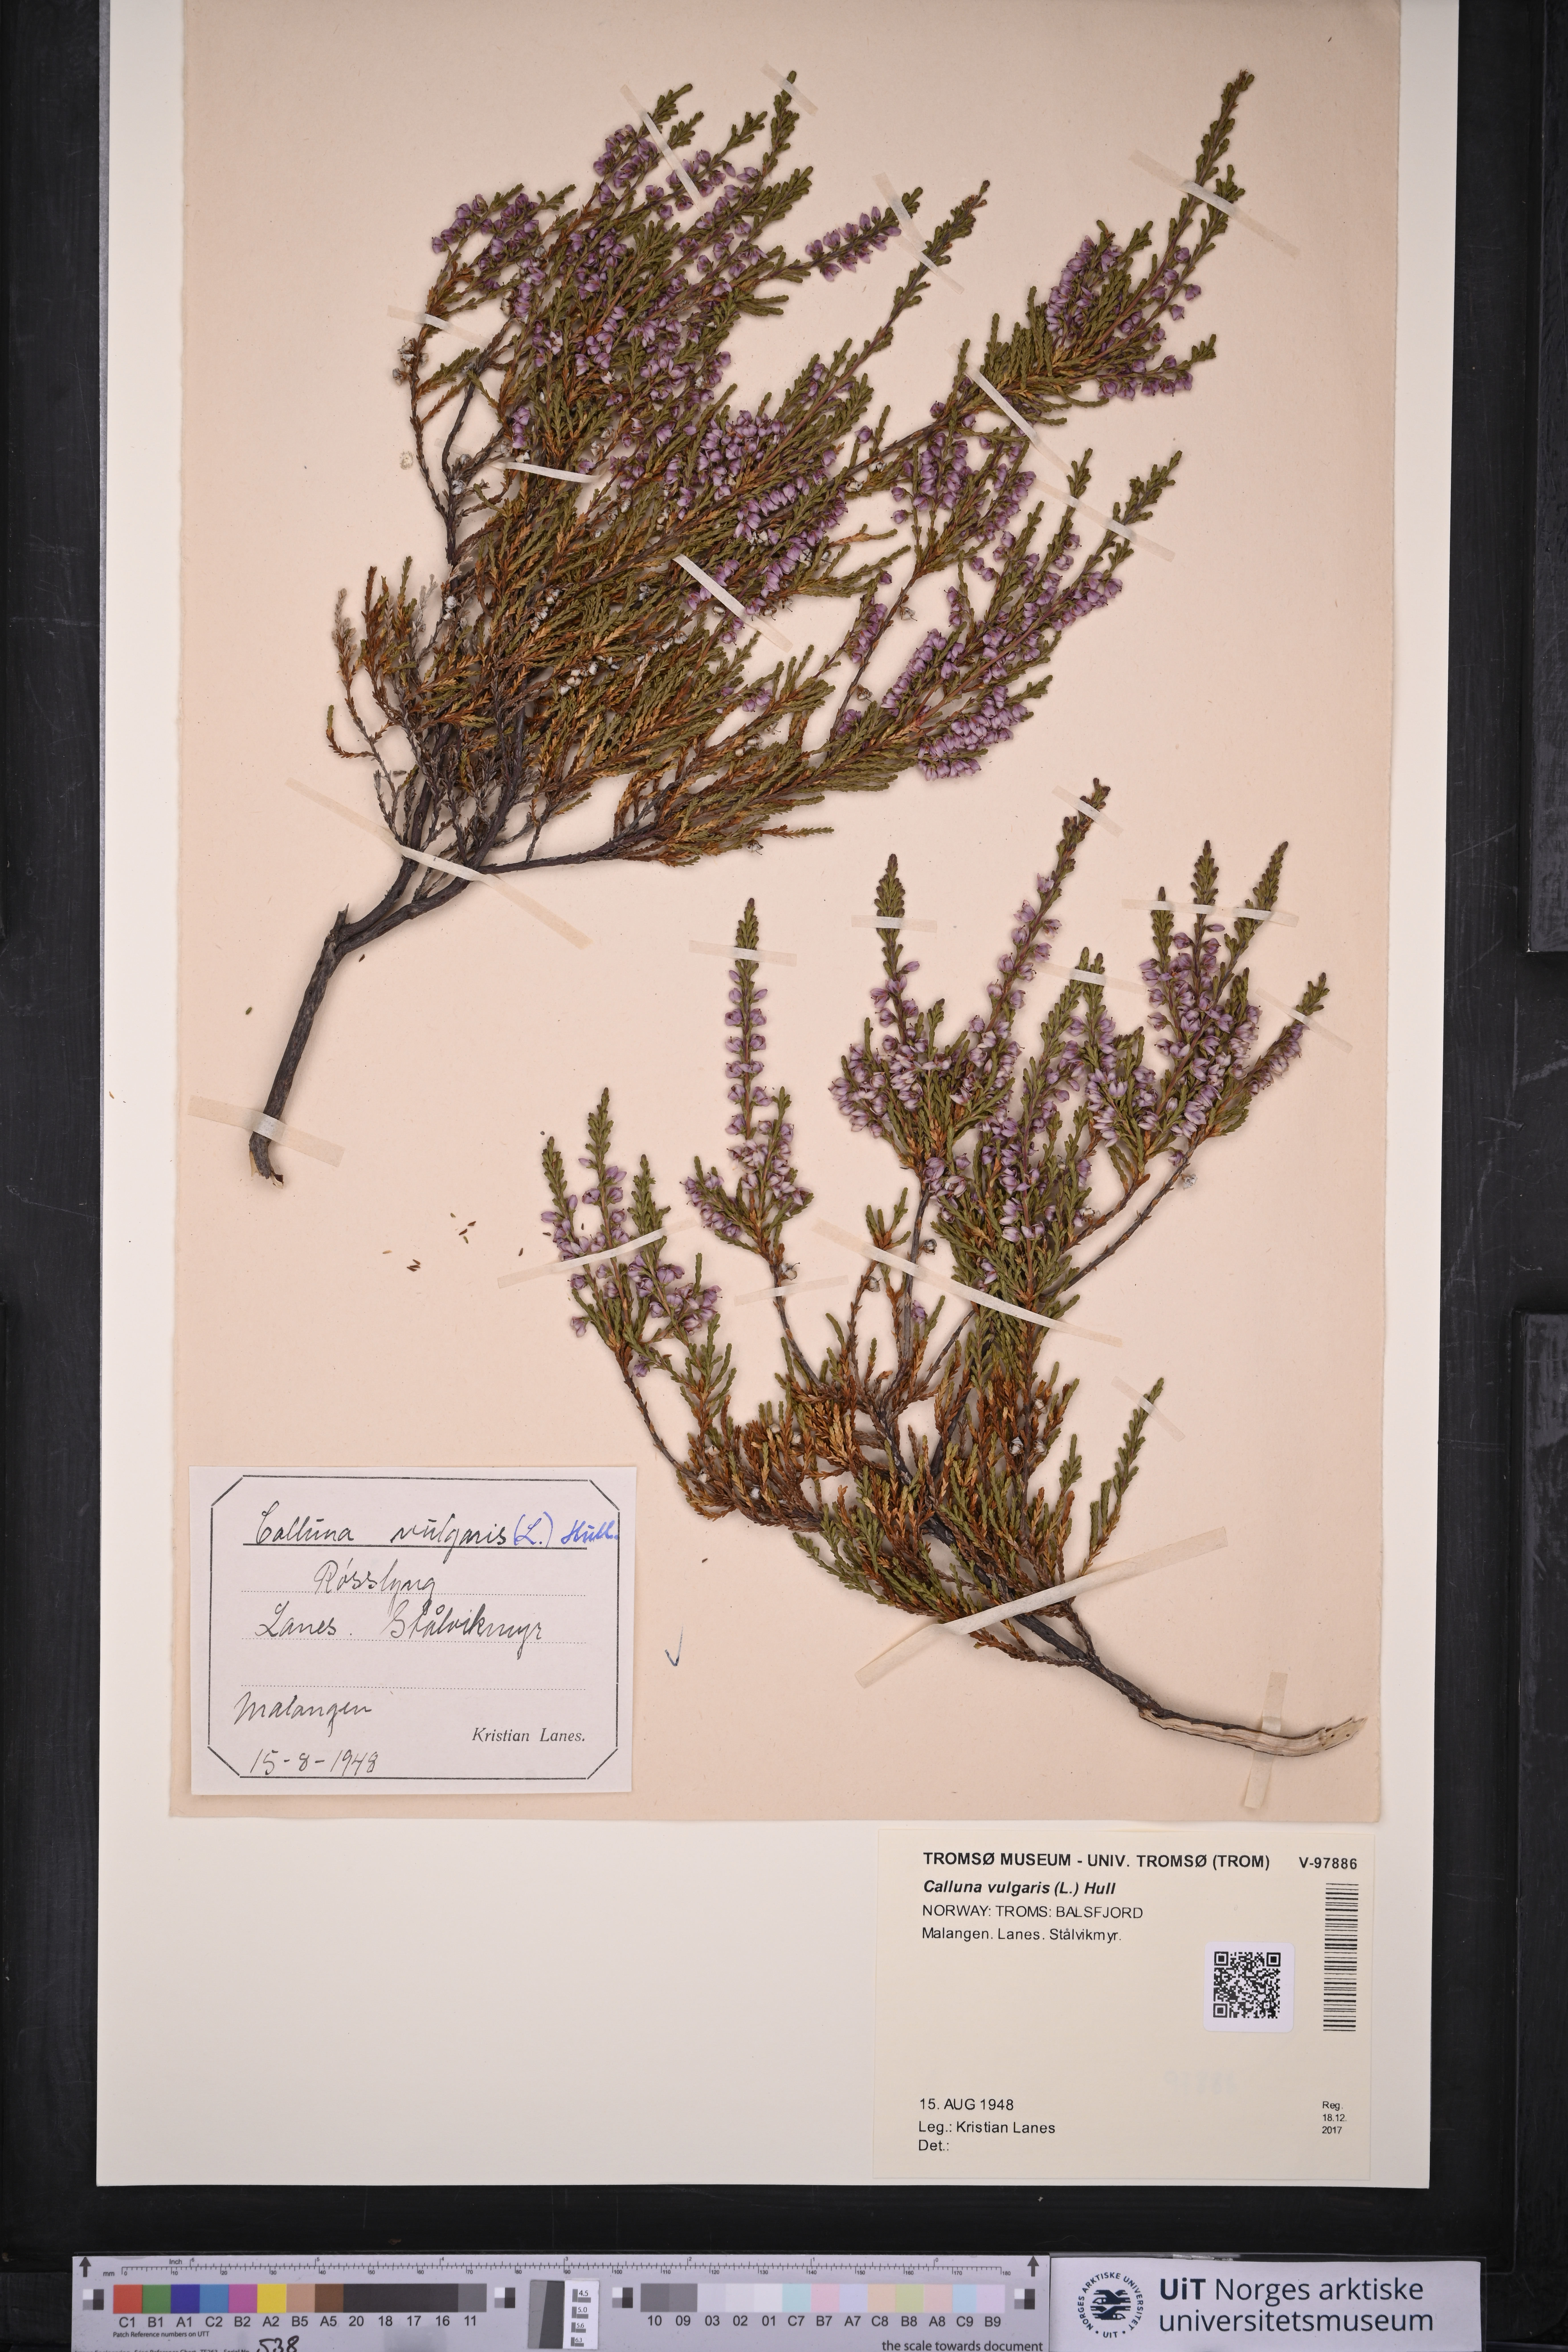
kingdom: Plantae
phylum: Tracheophyta
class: Magnoliopsida
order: Ericales
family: Ericaceae
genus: Calluna
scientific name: Calluna vulgaris
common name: Heather
